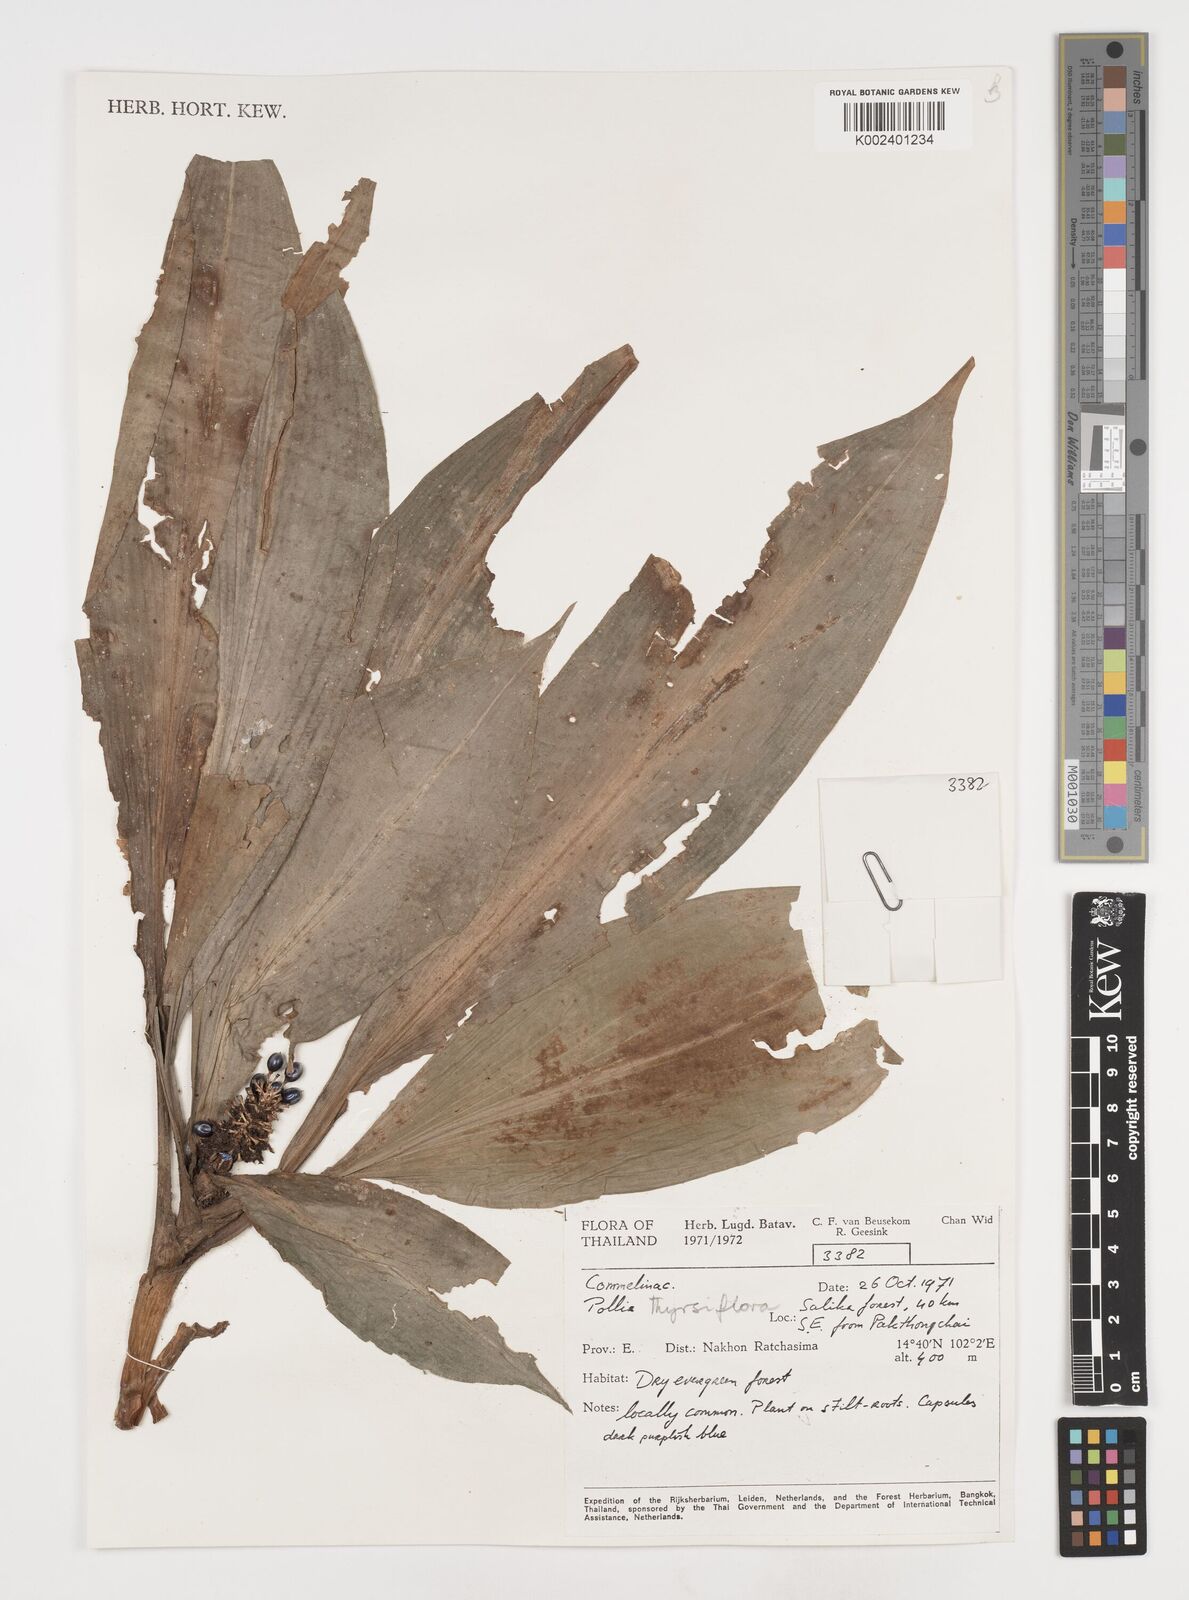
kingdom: Plantae
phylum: Tracheophyta
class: Liliopsida
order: Commelinales
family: Commelinaceae
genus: Pollia
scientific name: Pollia thyrsiflora
